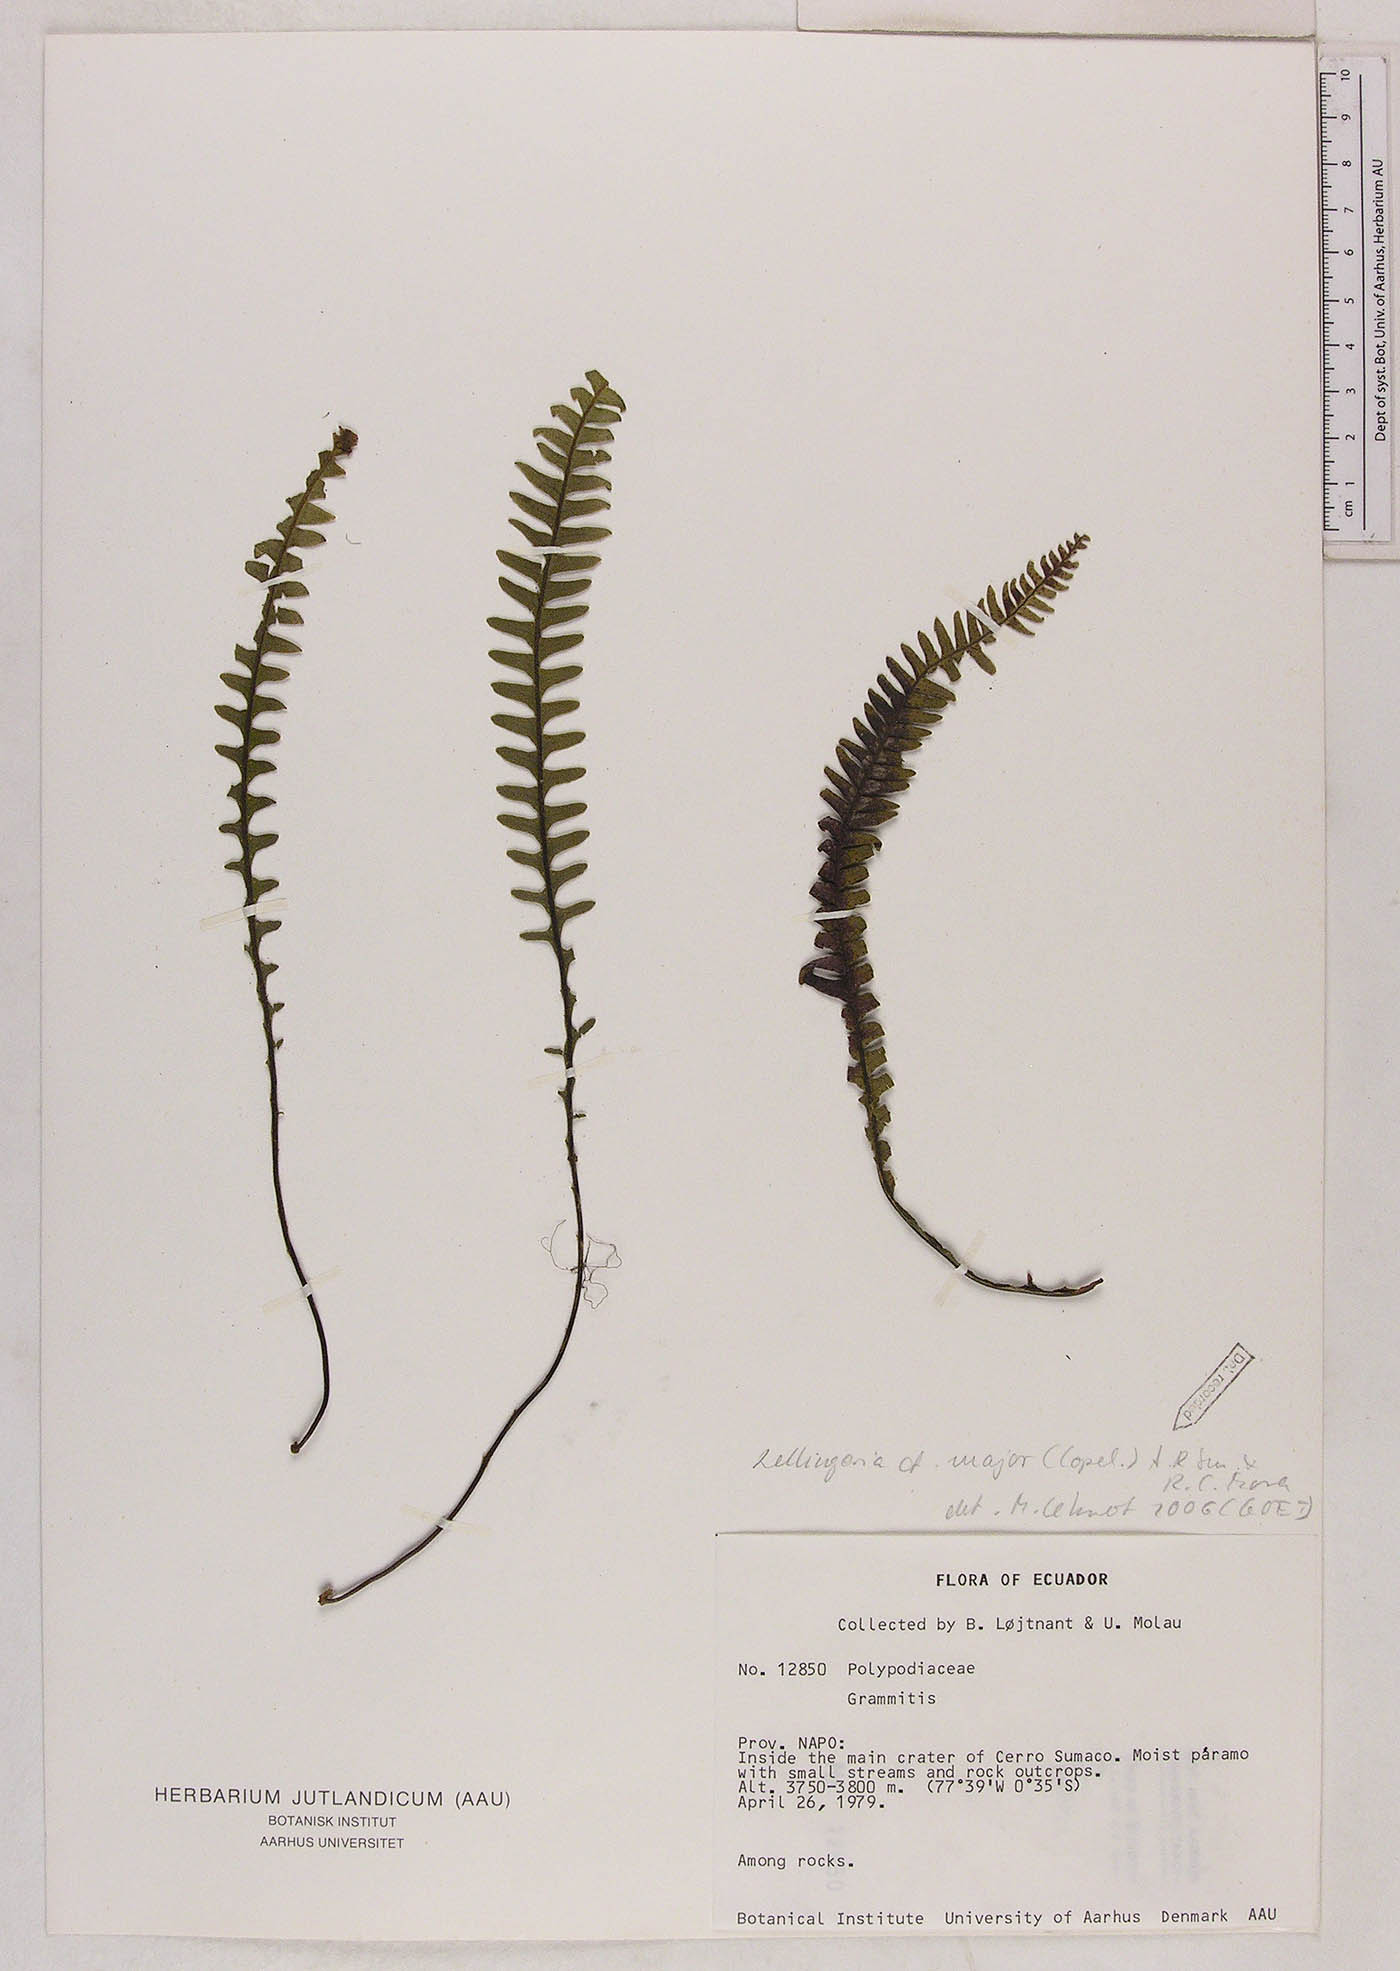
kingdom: Plantae
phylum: Tracheophyta
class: Polypodiopsida
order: Polypodiales
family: Polypodiaceae
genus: Lellingeria
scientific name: Lellingeria paramicola
